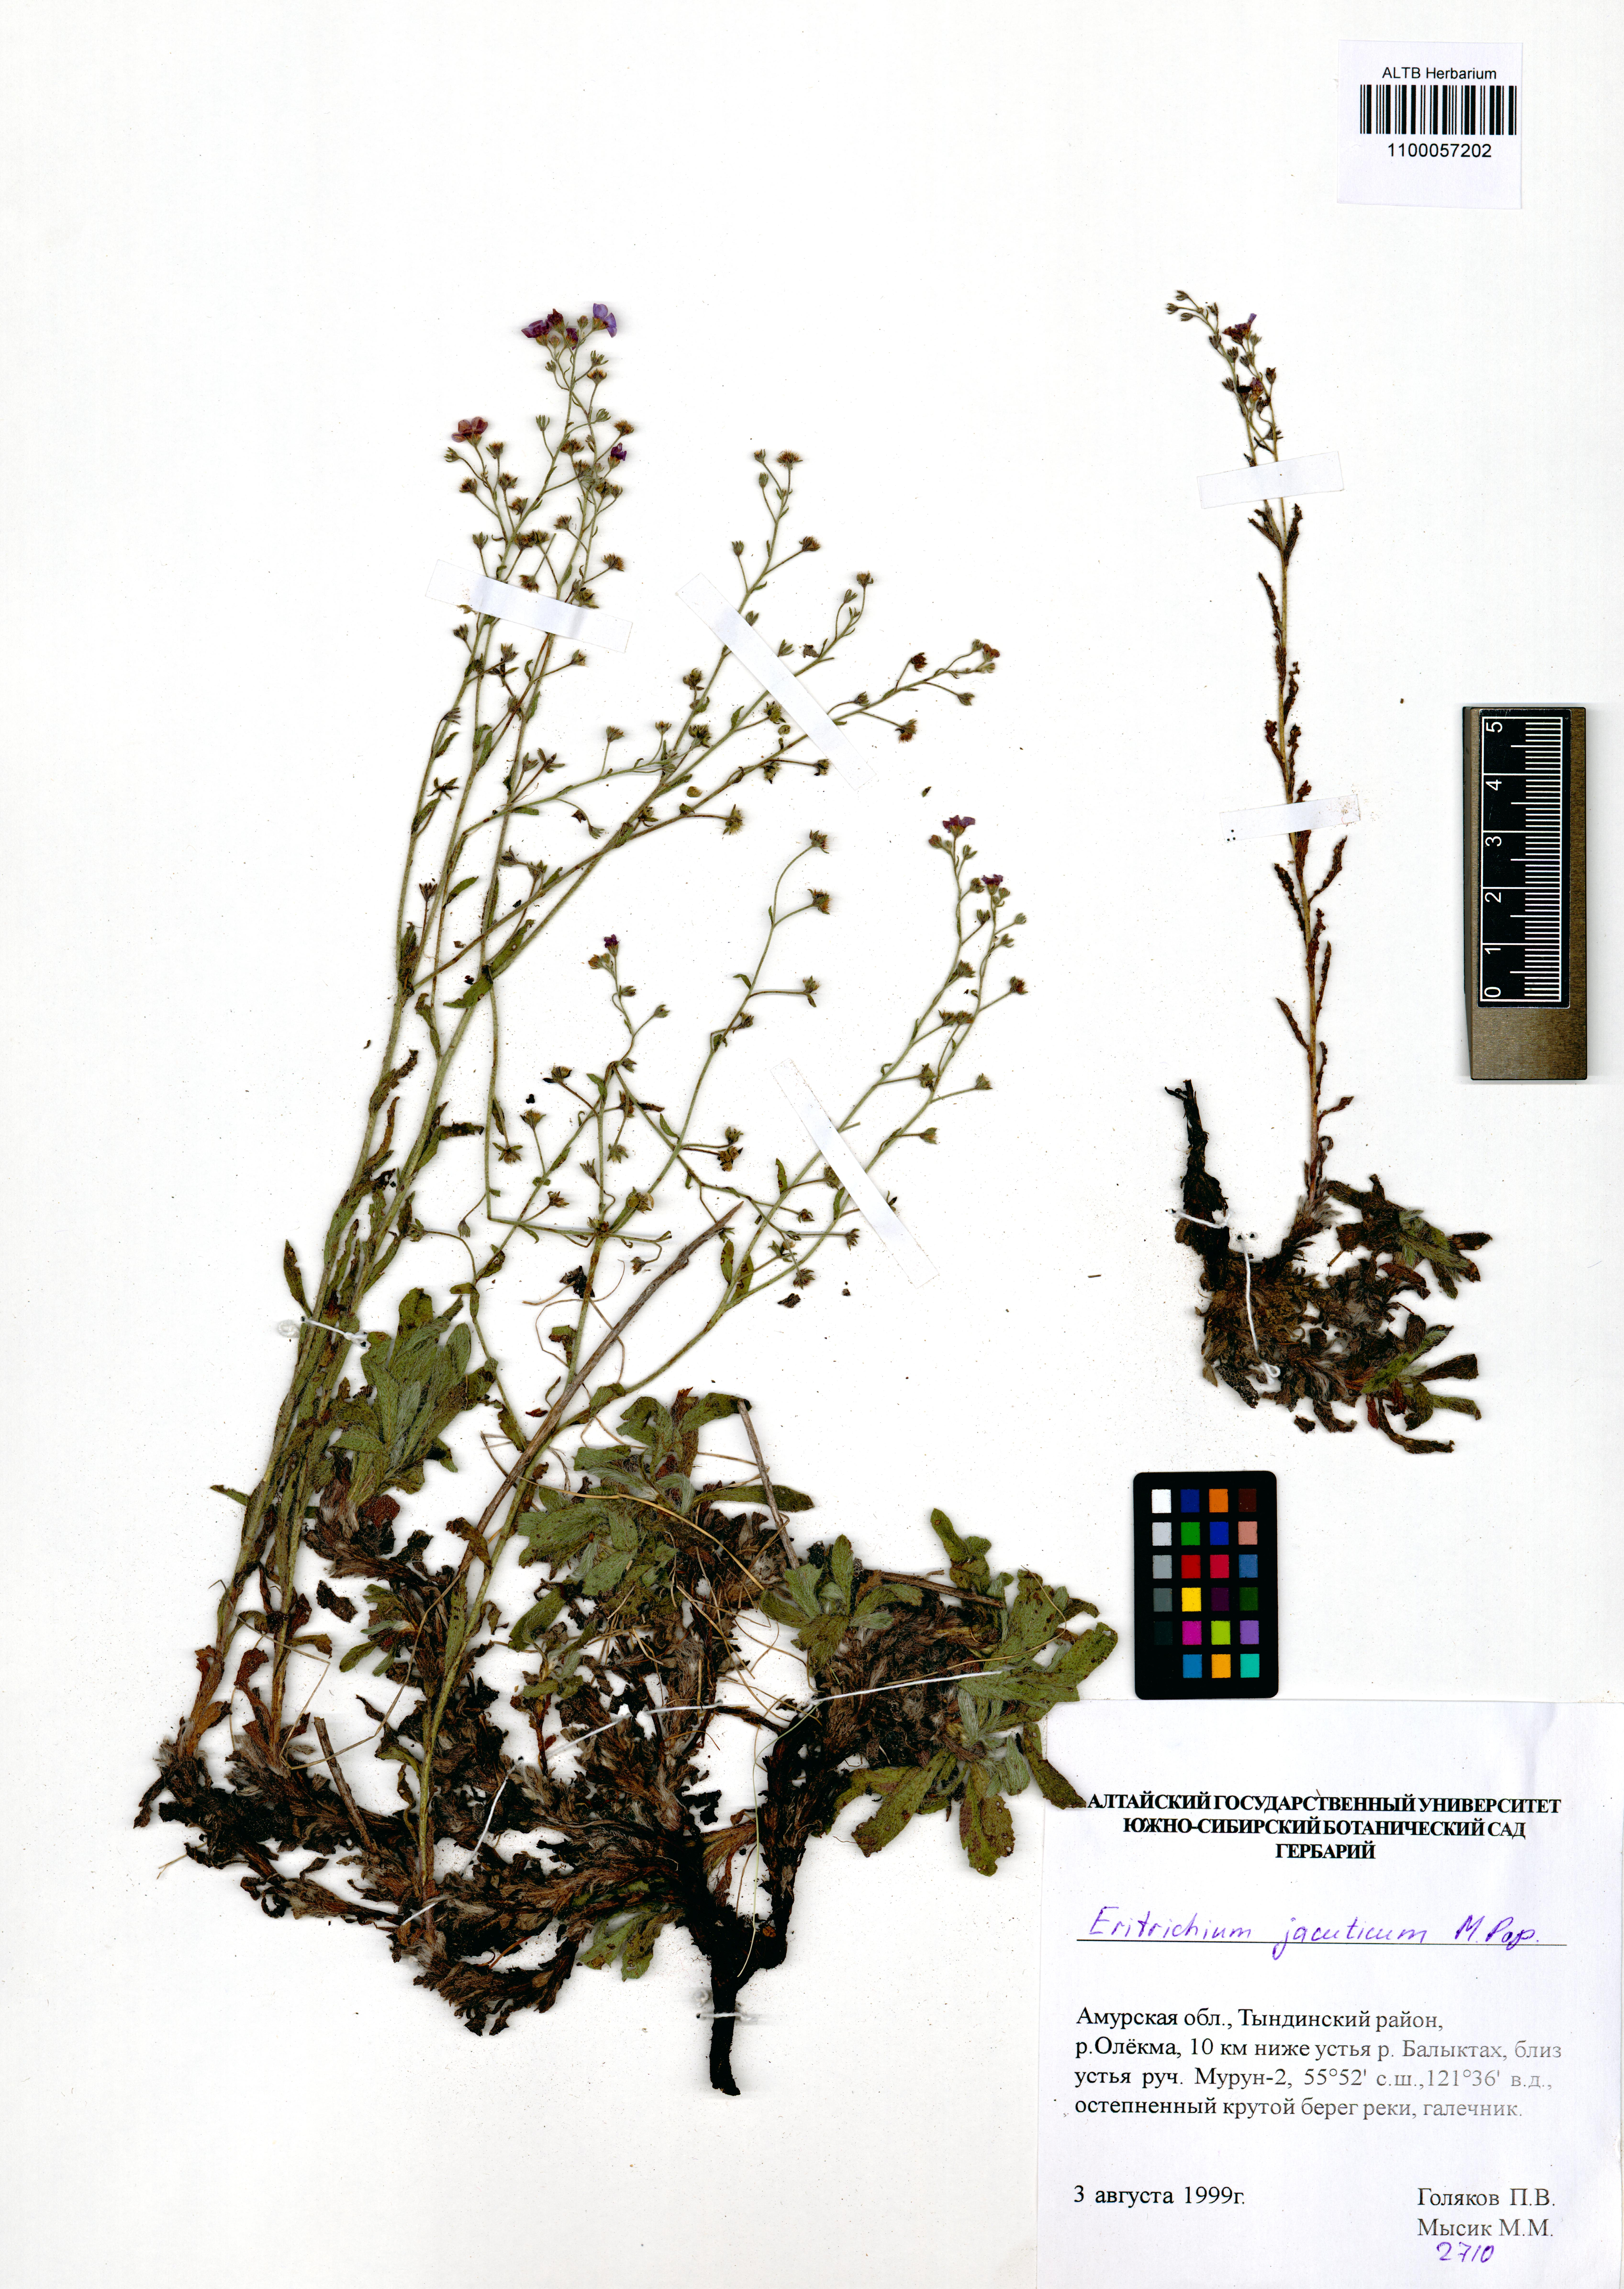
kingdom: Plantae
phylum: Tracheophyta
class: Magnoliopsida
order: Boraginales
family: Boraginaceae
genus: Eritrichium
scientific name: Eritrichium jacuticum
